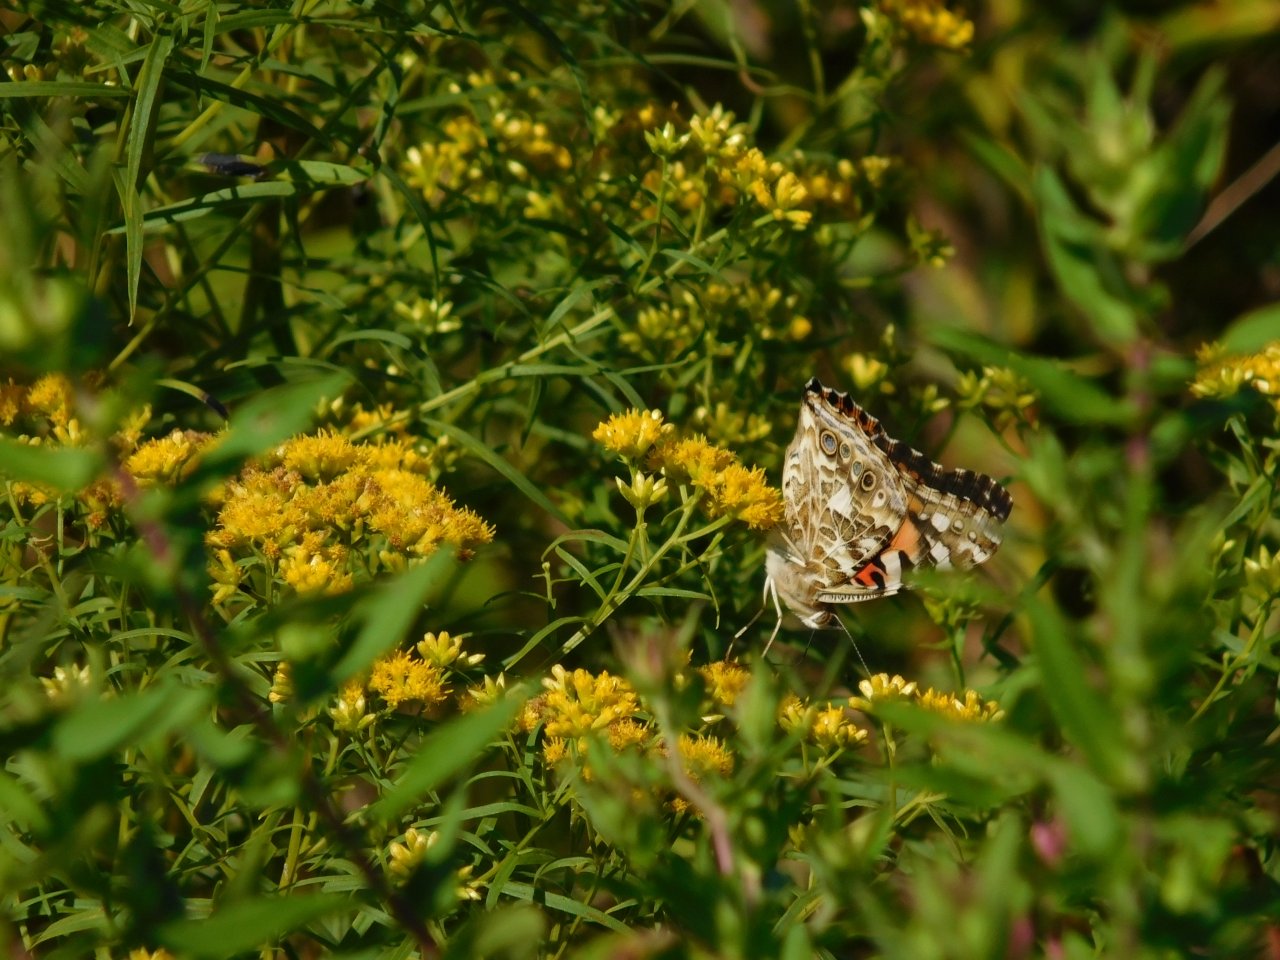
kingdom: Animalia
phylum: Arthropoda
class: Insecta
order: Lepidoptera
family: Nymphalidae
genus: Vanessa
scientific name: Vanessa cardui
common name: Painted Lady
